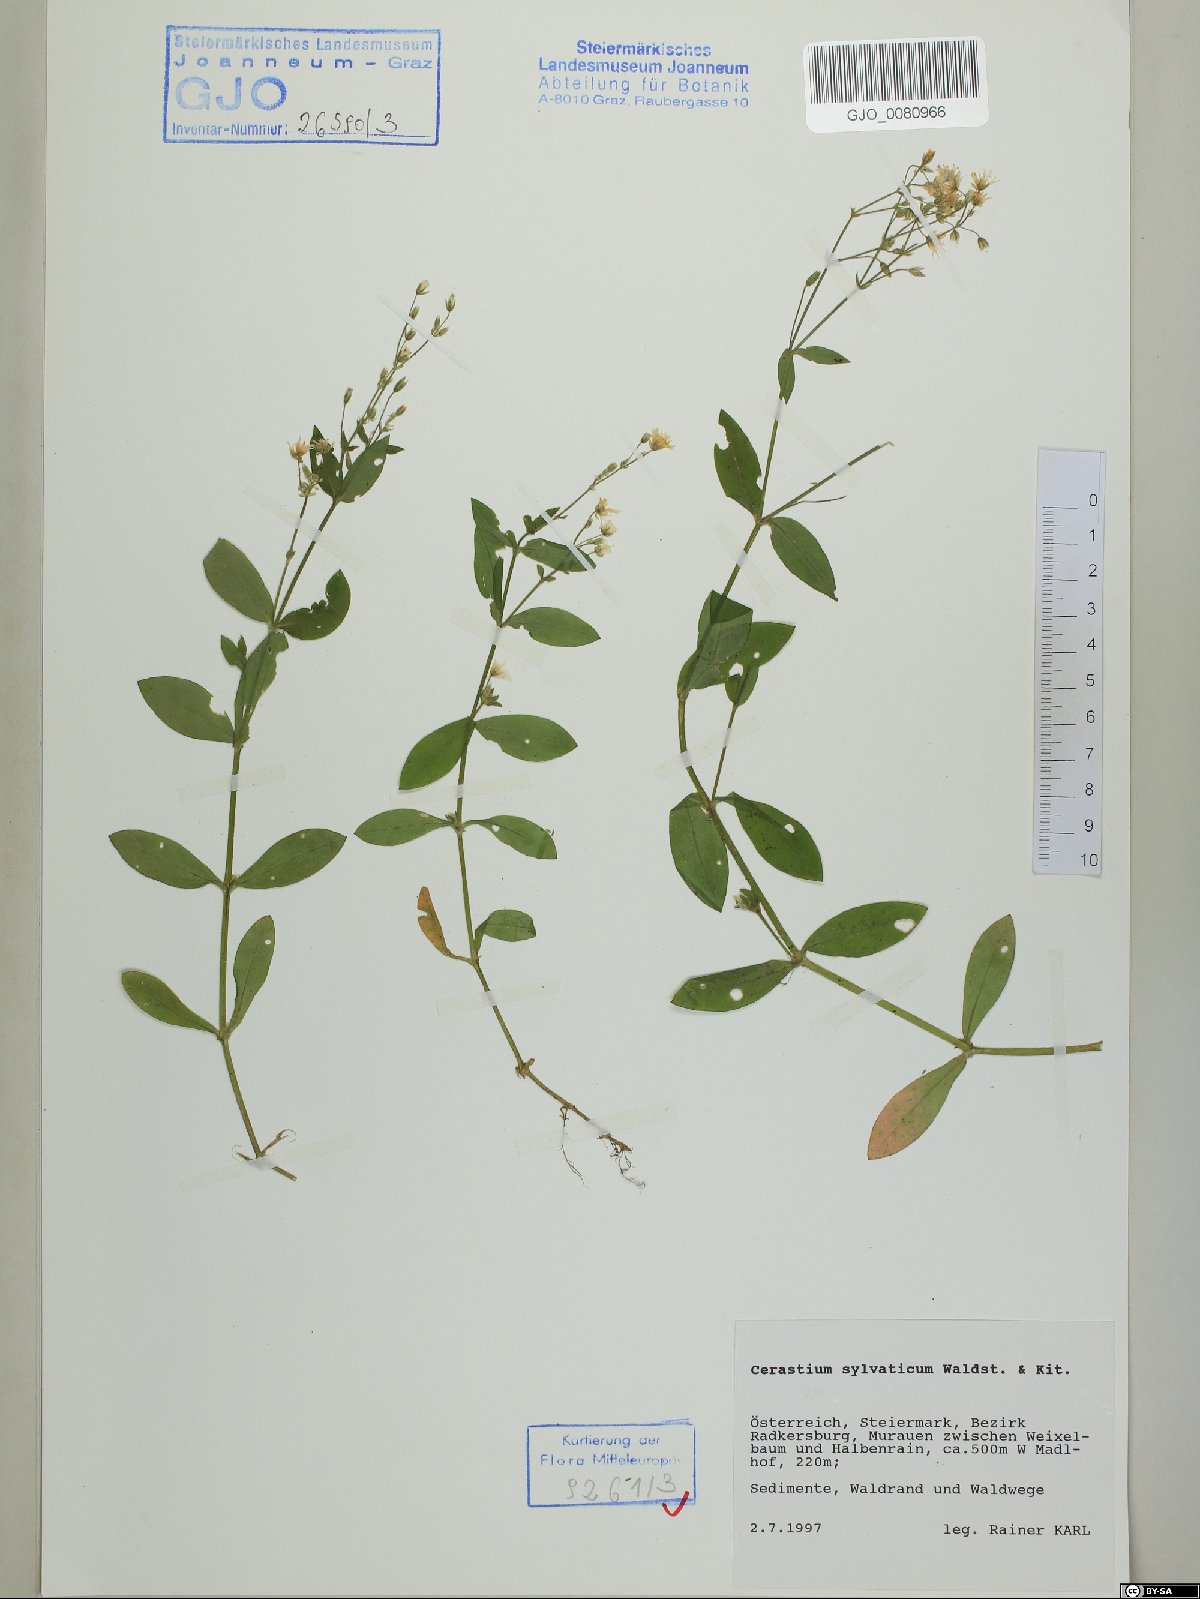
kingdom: Plantae
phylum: Tracheophyta
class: Magnoliopsida
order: Caryophyllales
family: Caryophyllaceae
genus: Cerastium
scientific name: Cerastium sylvaticum
